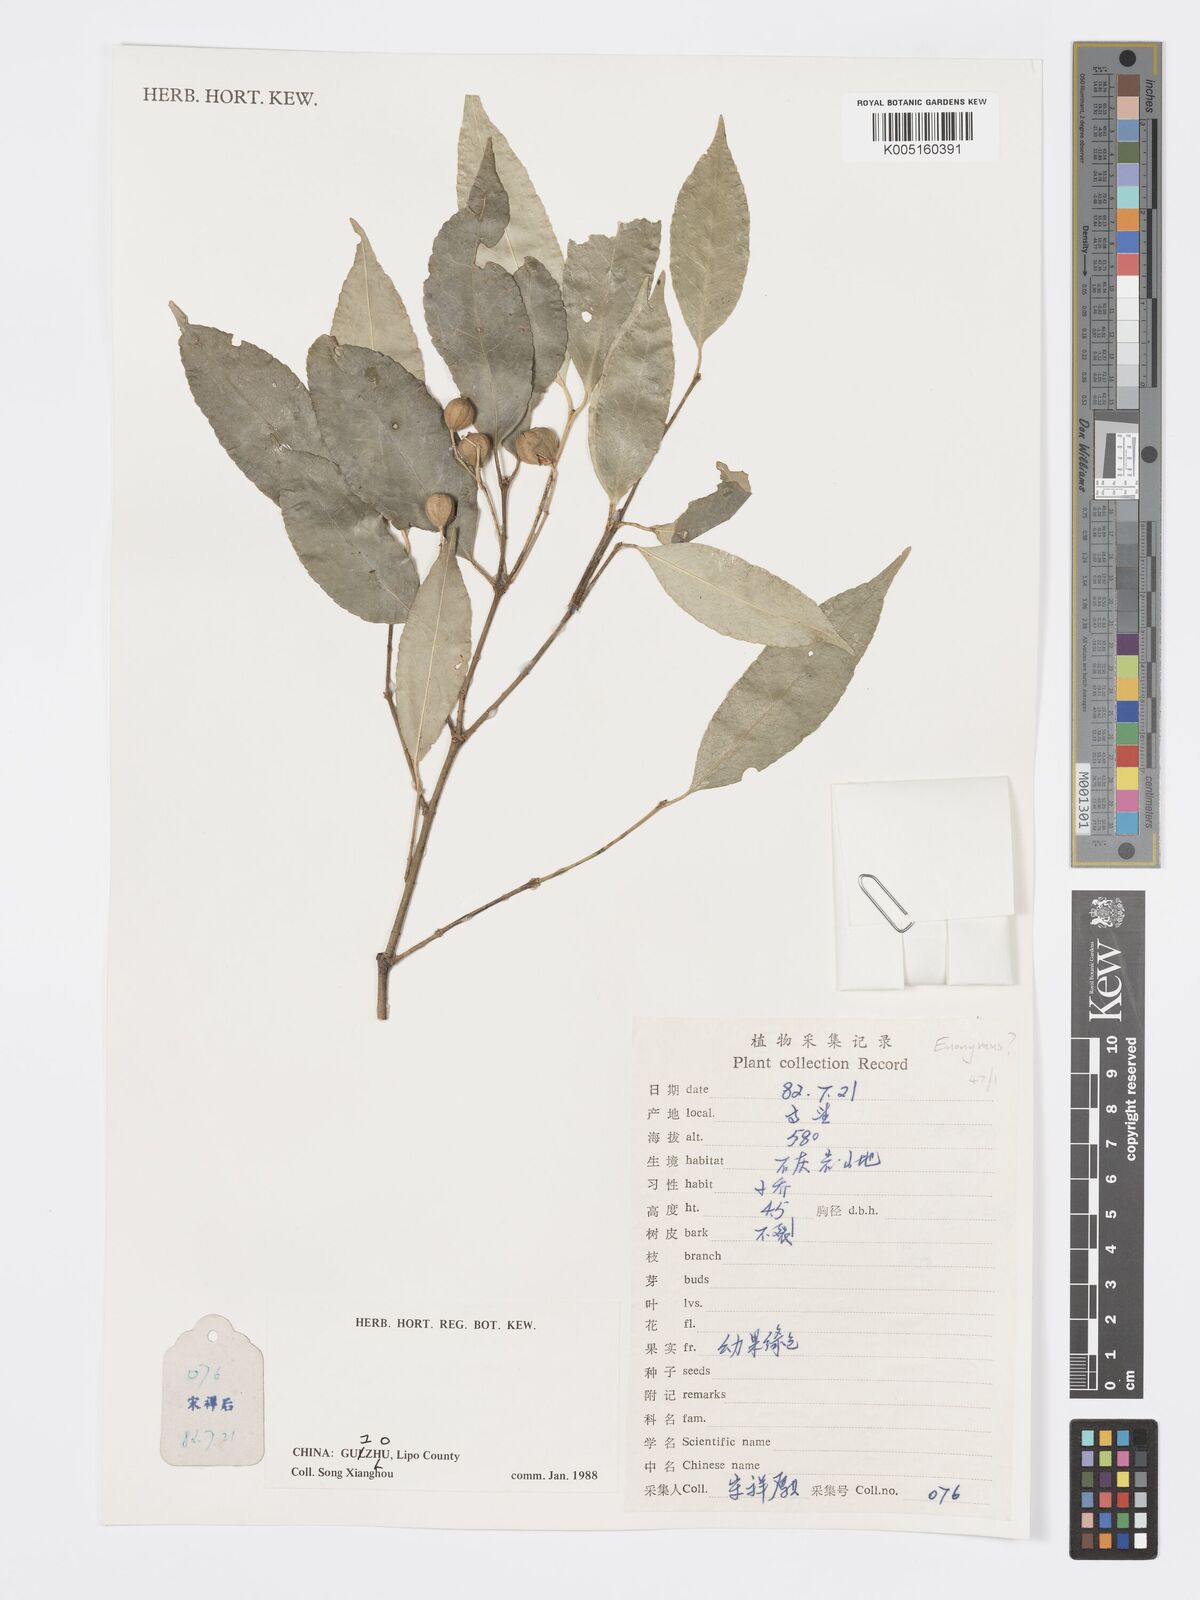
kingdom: Plantae
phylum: Tracheophyta
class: Magnoliopsida
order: Celastrales
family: Celastraceae
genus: Euonymus
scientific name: Euonymus
